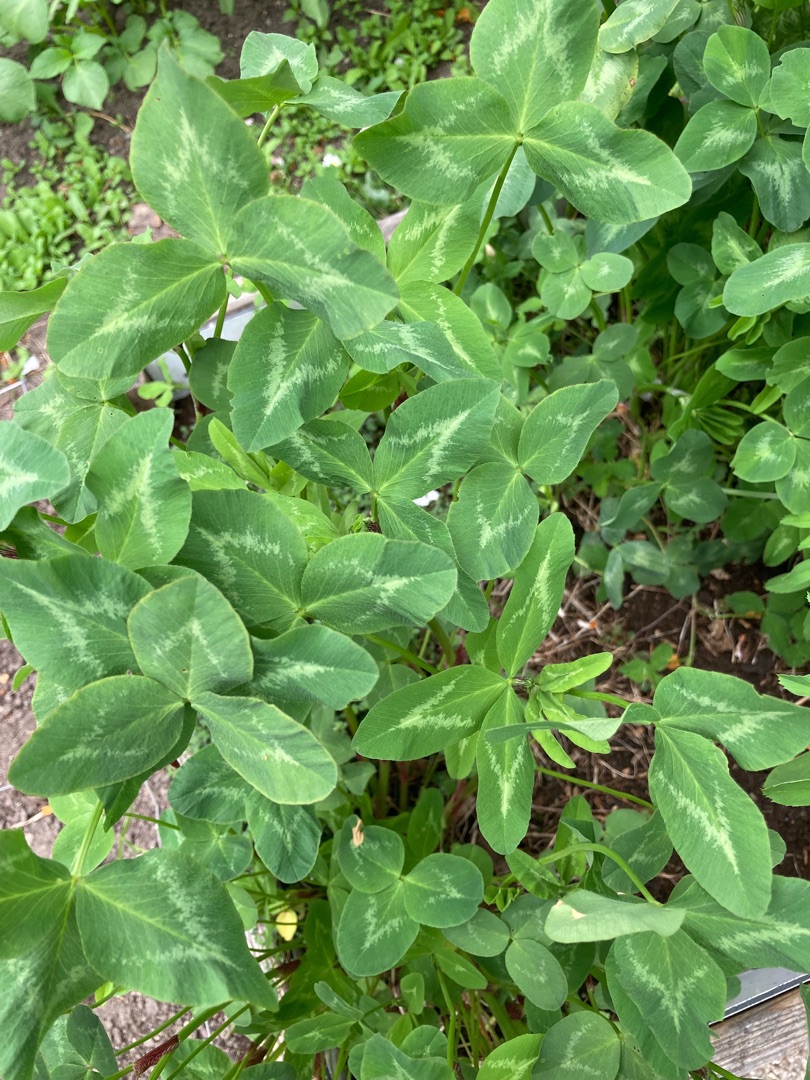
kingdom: Plantae
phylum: Tracheophyta
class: Magnoliopsida
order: Fabales
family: Fabaceae
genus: Trifolium
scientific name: Trifolium pratense
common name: Rød-kløver
